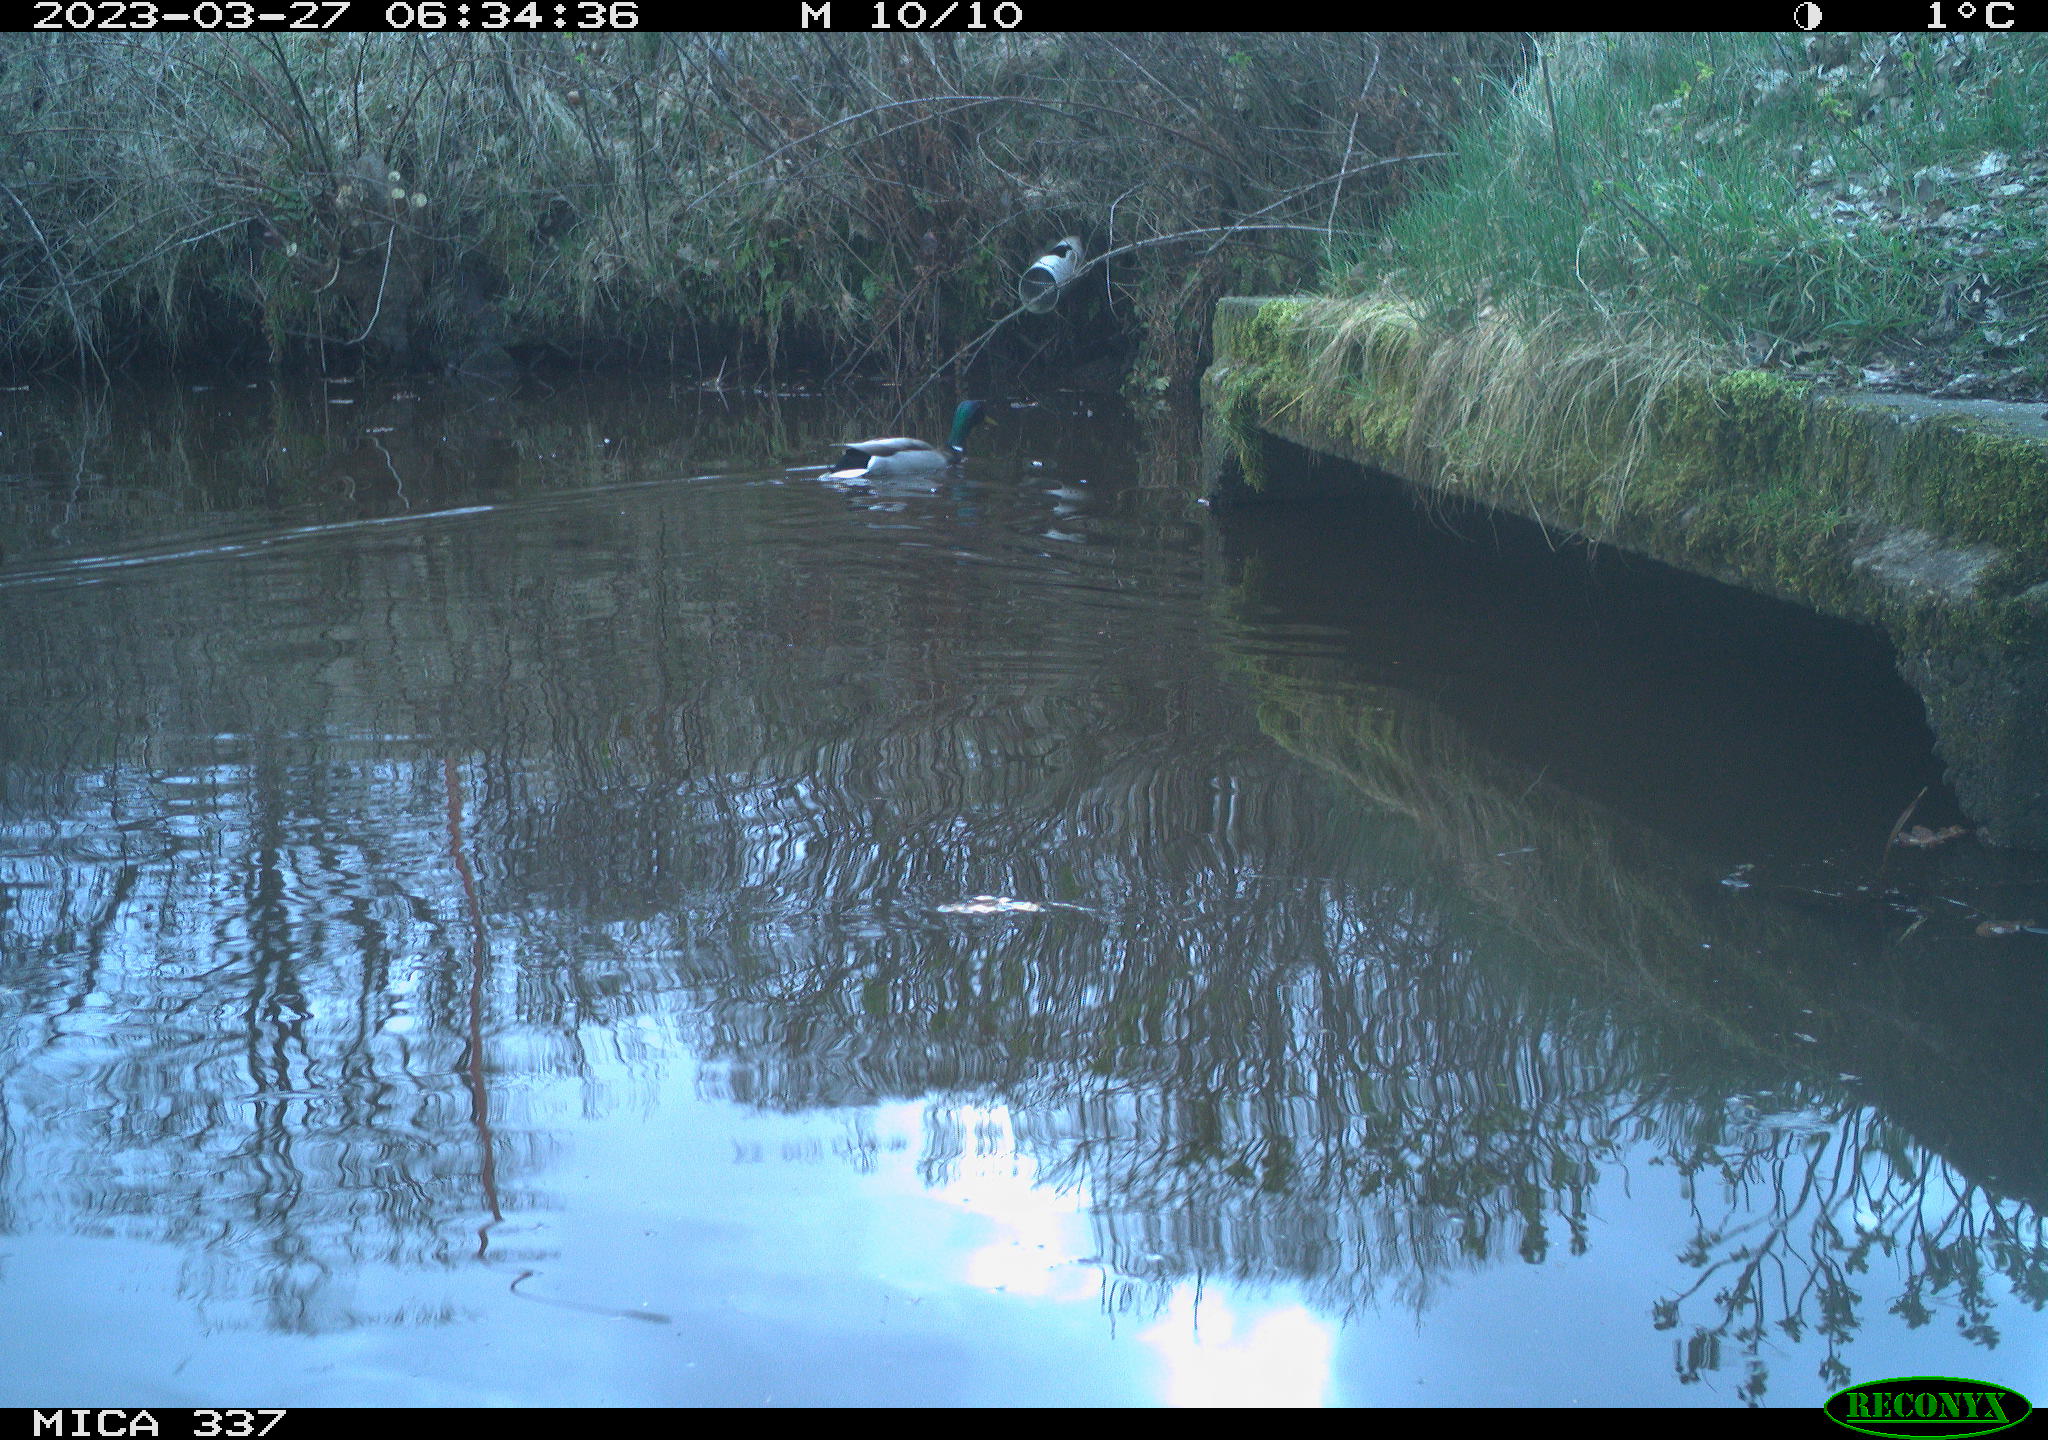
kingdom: Animalia
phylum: Chordata
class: Aves
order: Anseriformes
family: Anatidae
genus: Anas
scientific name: Anas
